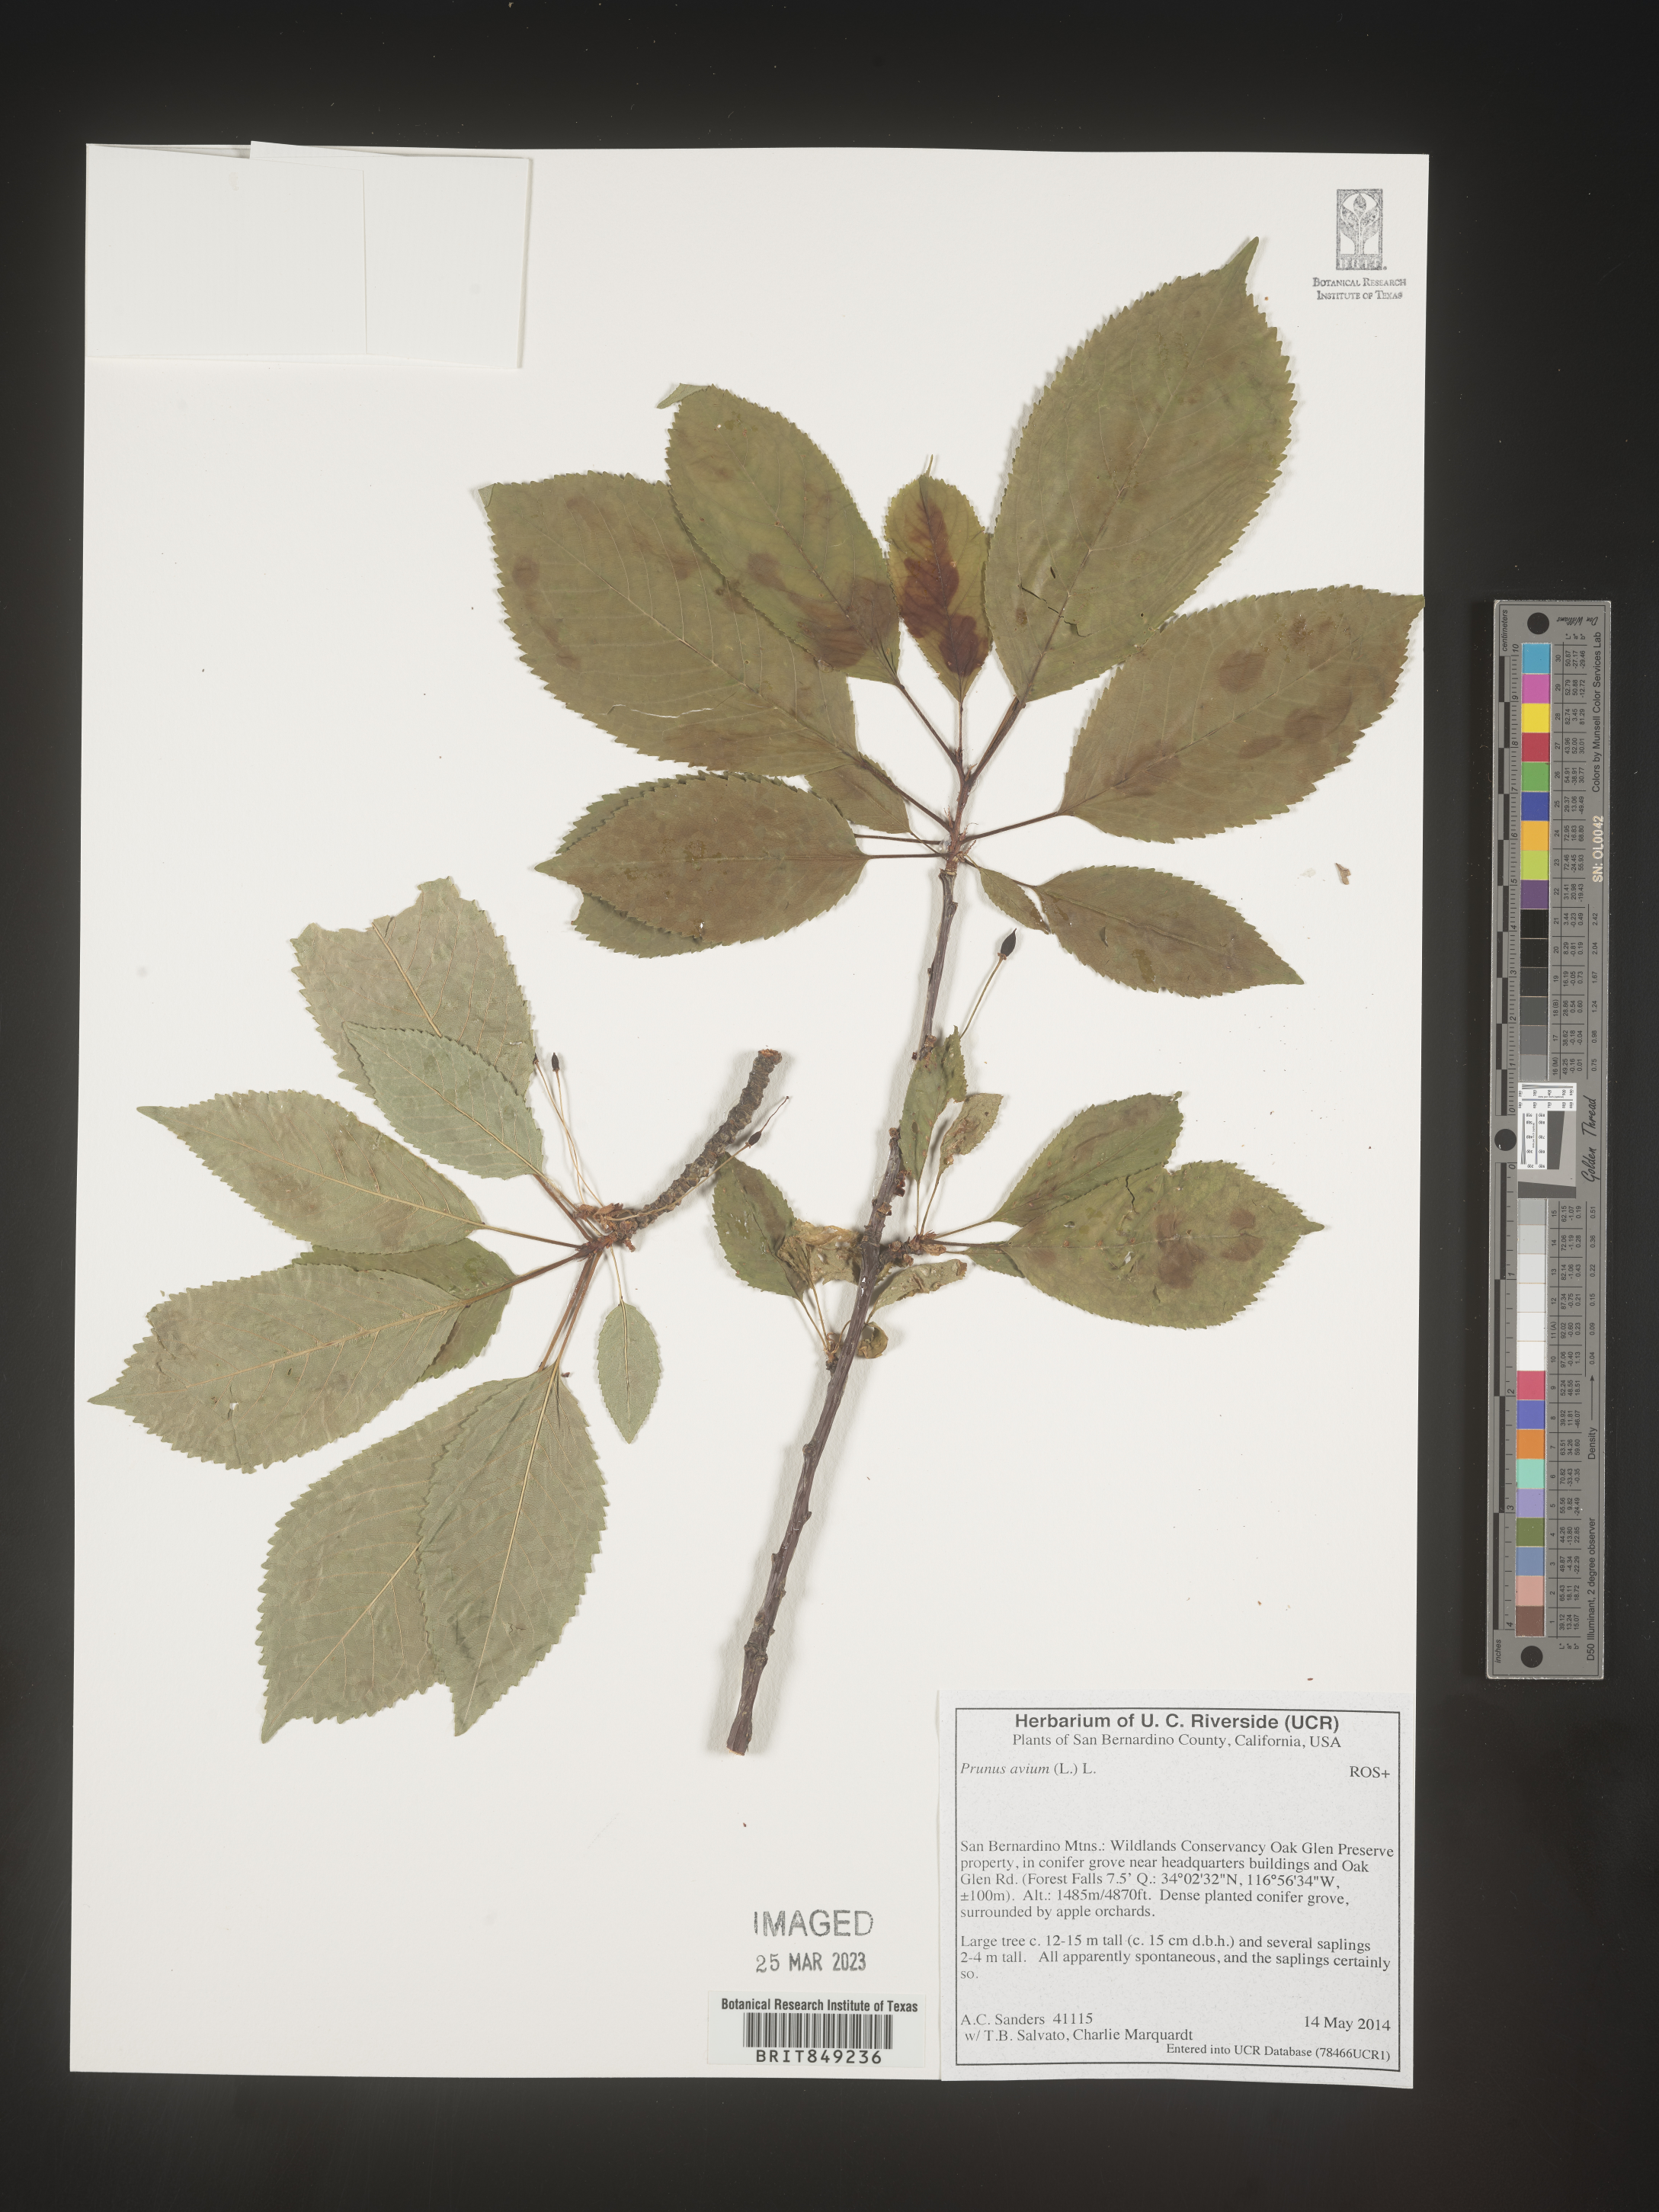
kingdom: Plantae
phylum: Tracheophyta
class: Magnoliopsida
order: Rosales
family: Rosaceae
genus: Prunus
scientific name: Prunus
